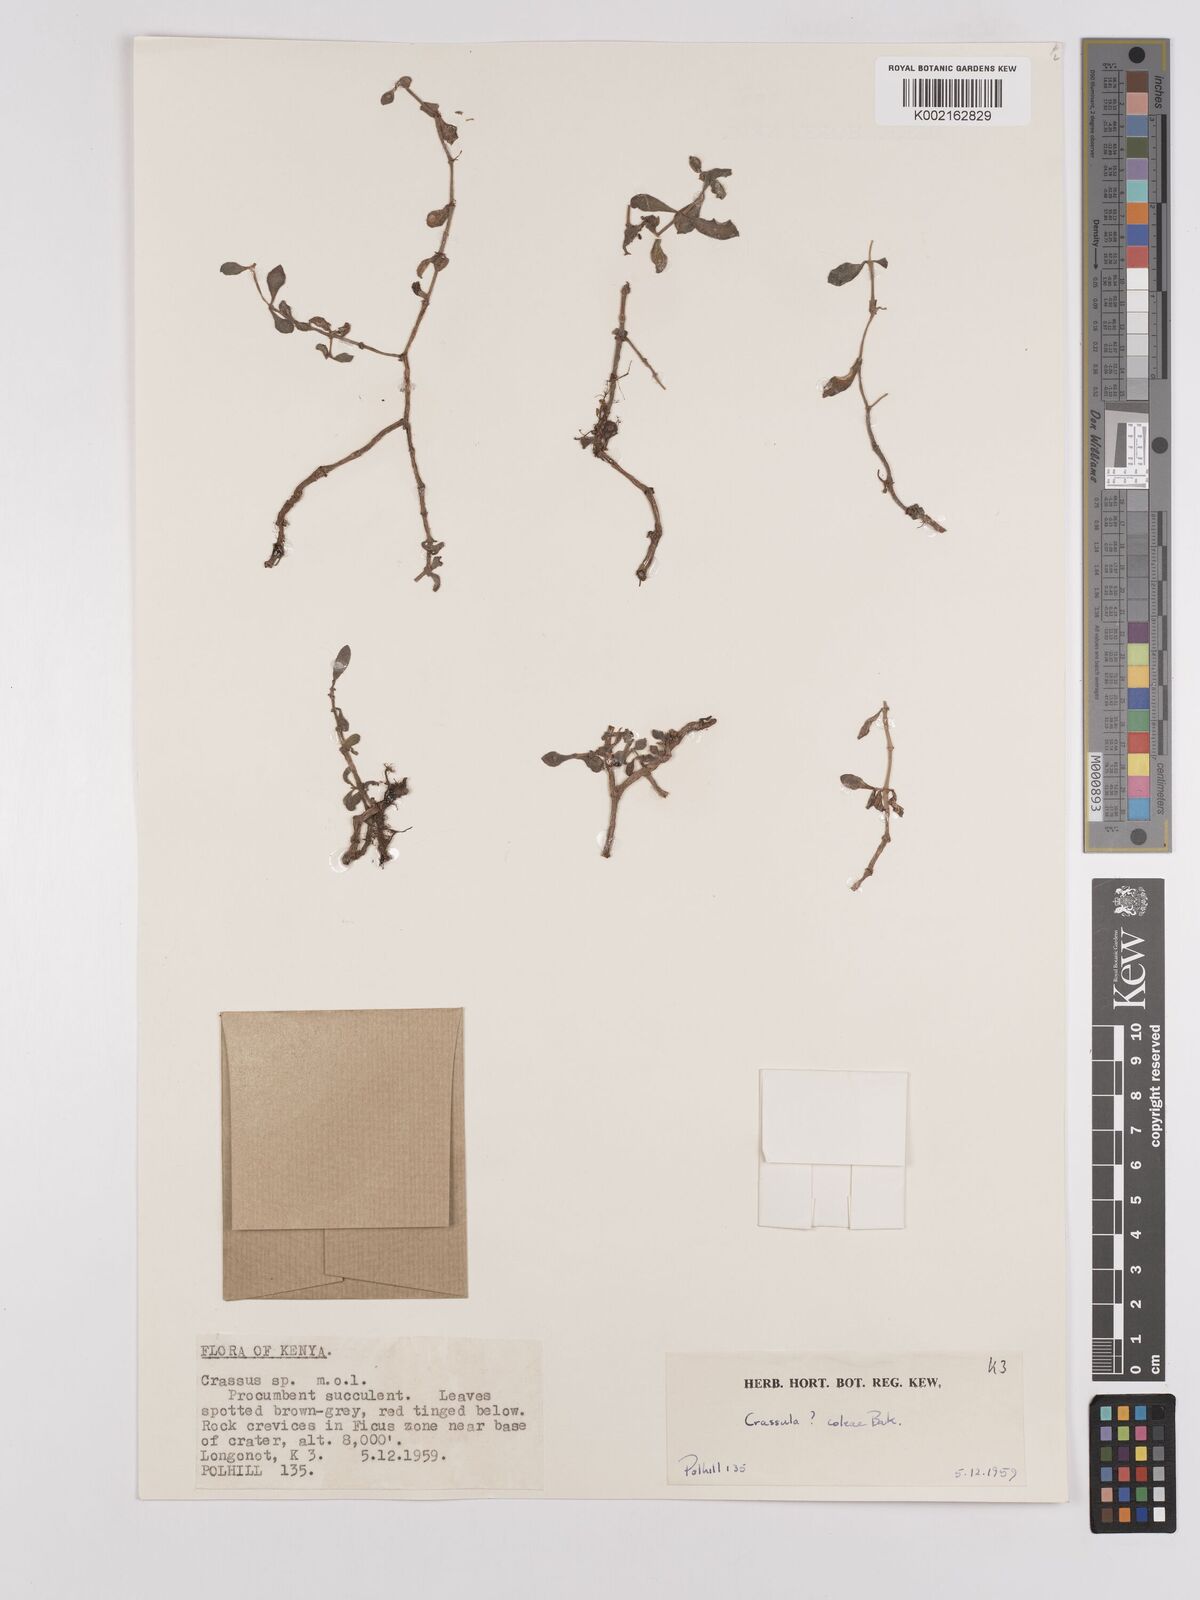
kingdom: Plantae
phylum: Tracheophyta
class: Magnoliopsida
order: Saxifragales
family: Crassulaceae
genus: Crassula
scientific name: Crassula volkensii
